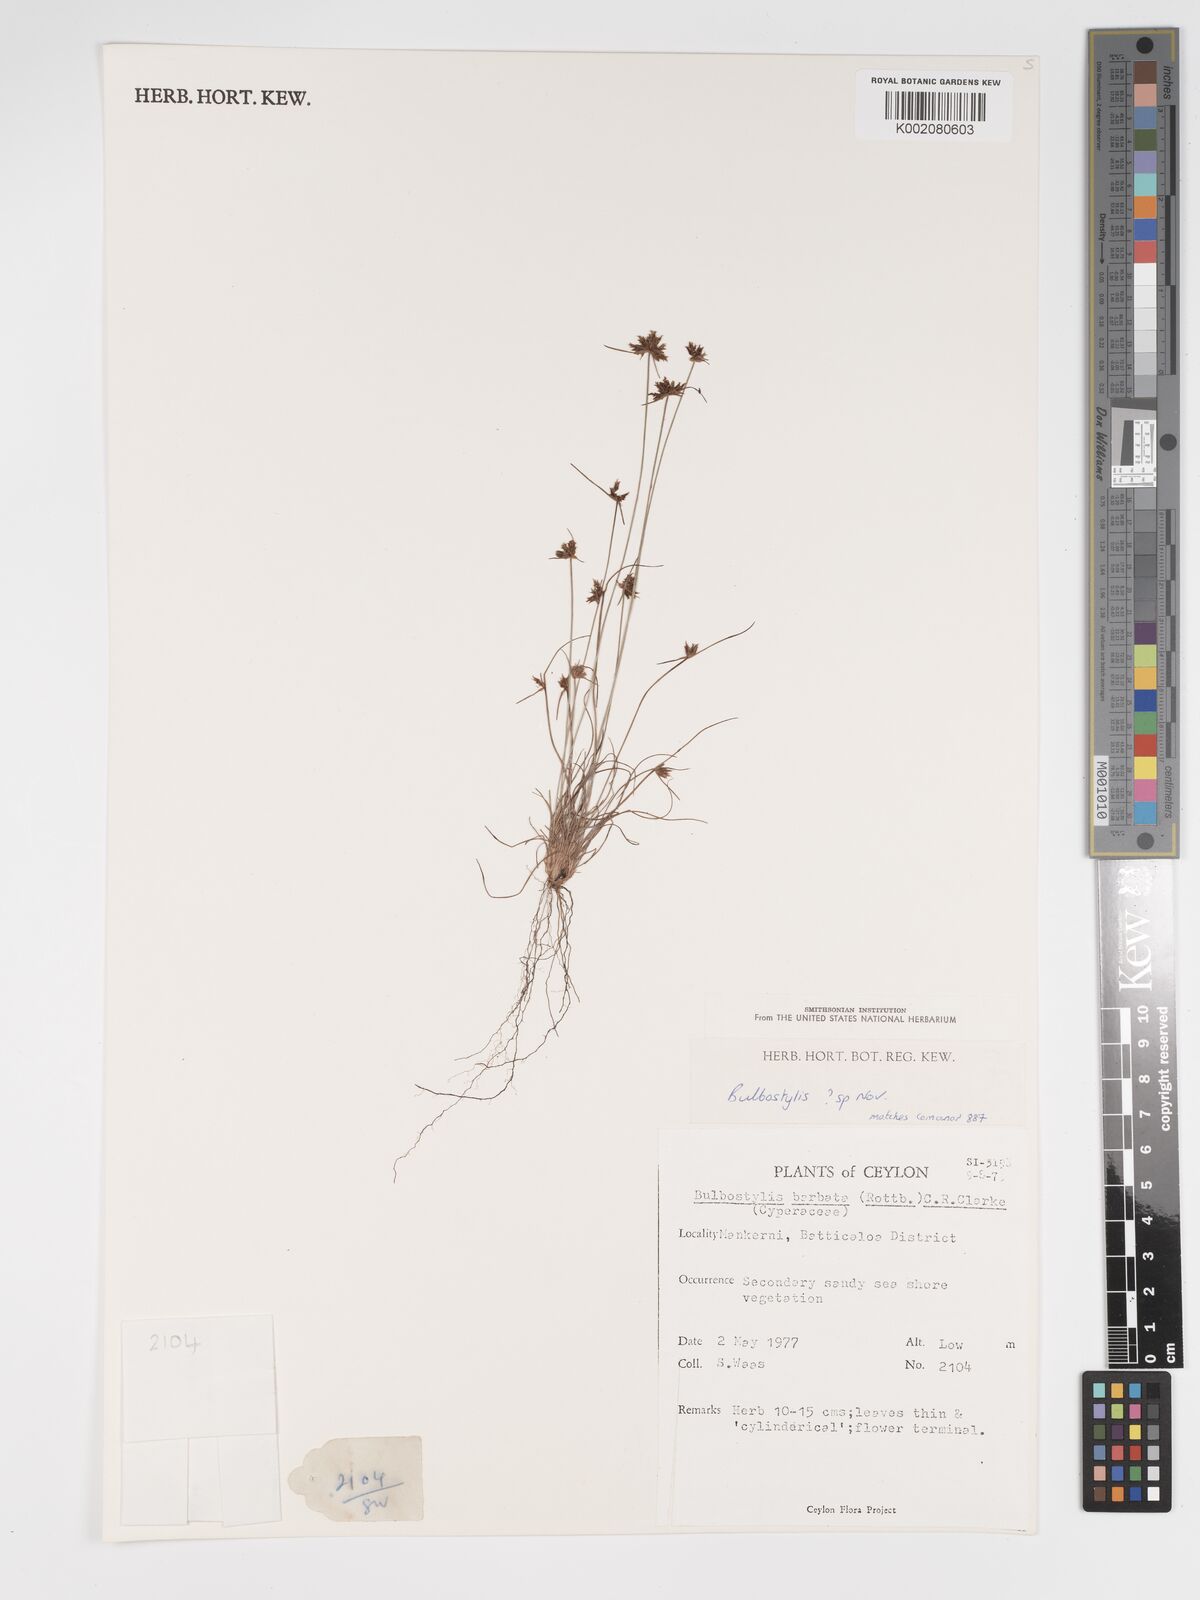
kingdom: Plantae
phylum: Tracheophyta
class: Liliopsida
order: Poales
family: Cyperaceae
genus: Bulbostylis
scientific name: Bulbostylis
